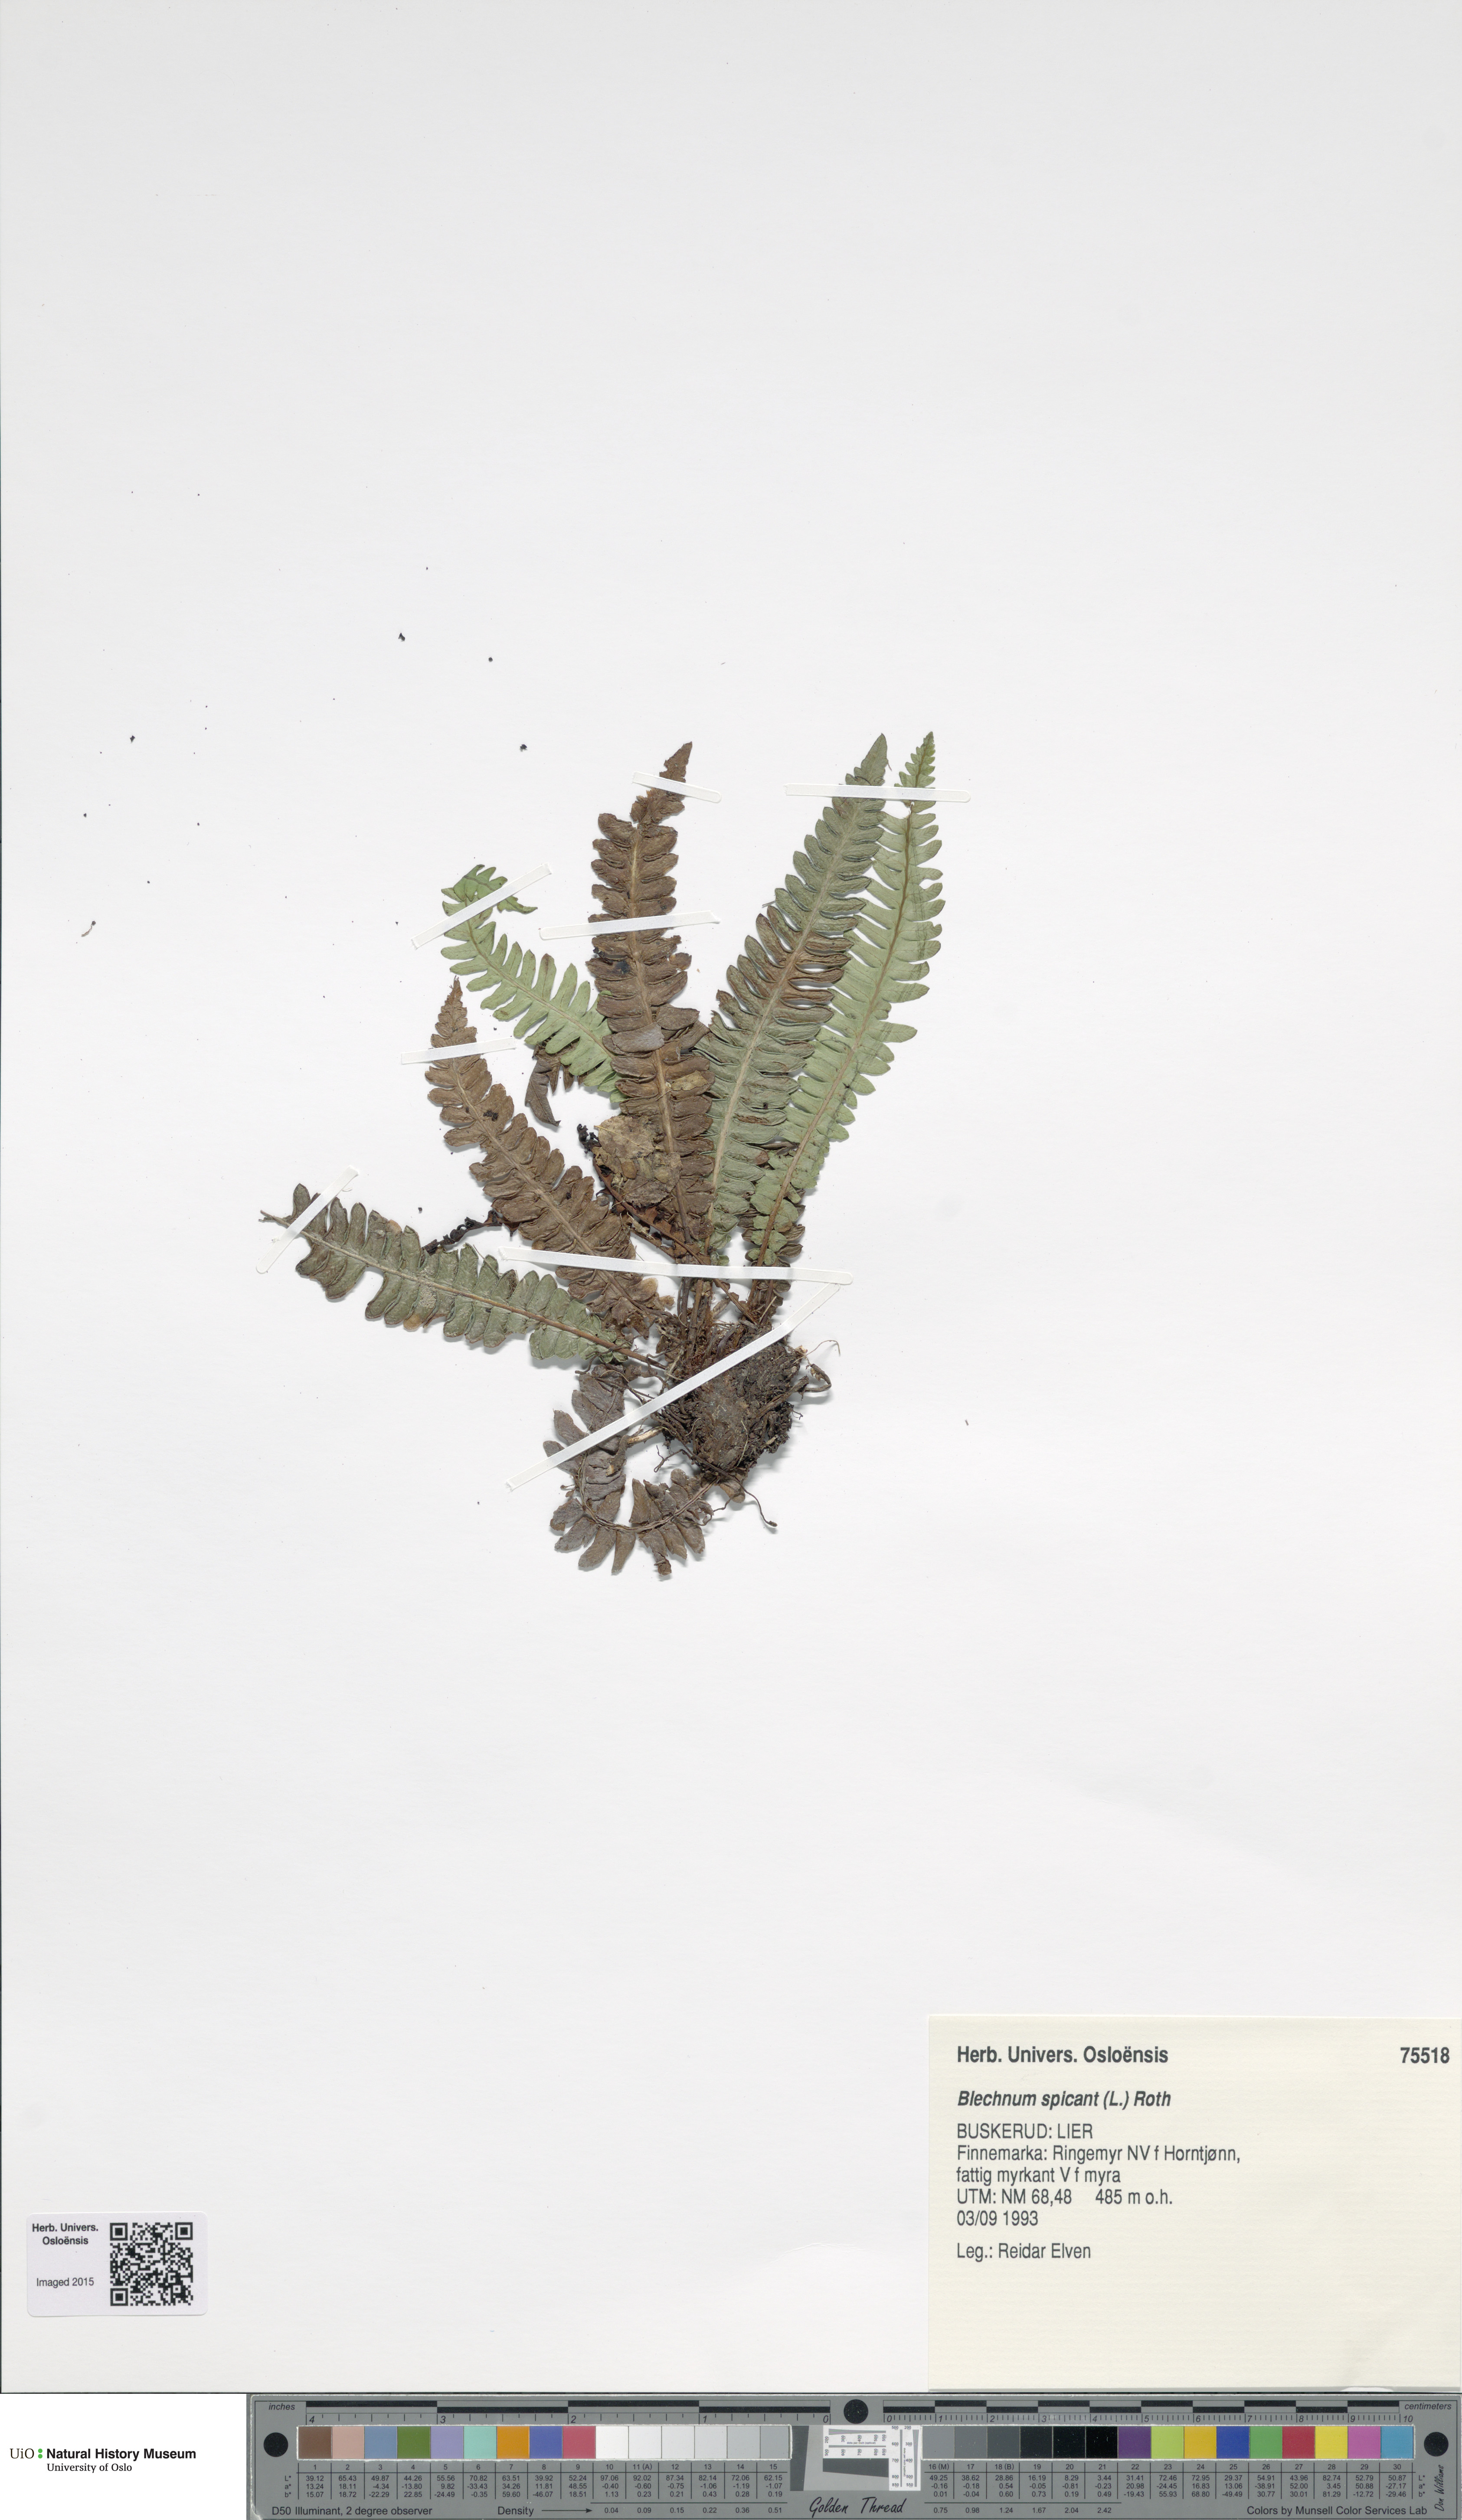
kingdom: Plantae
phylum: Tracheophyta
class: Polypodiopsida
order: Polypodiales
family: Blechnaceae
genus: Struthiopteris
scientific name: Struthiopteris spicant
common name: Deer fern
